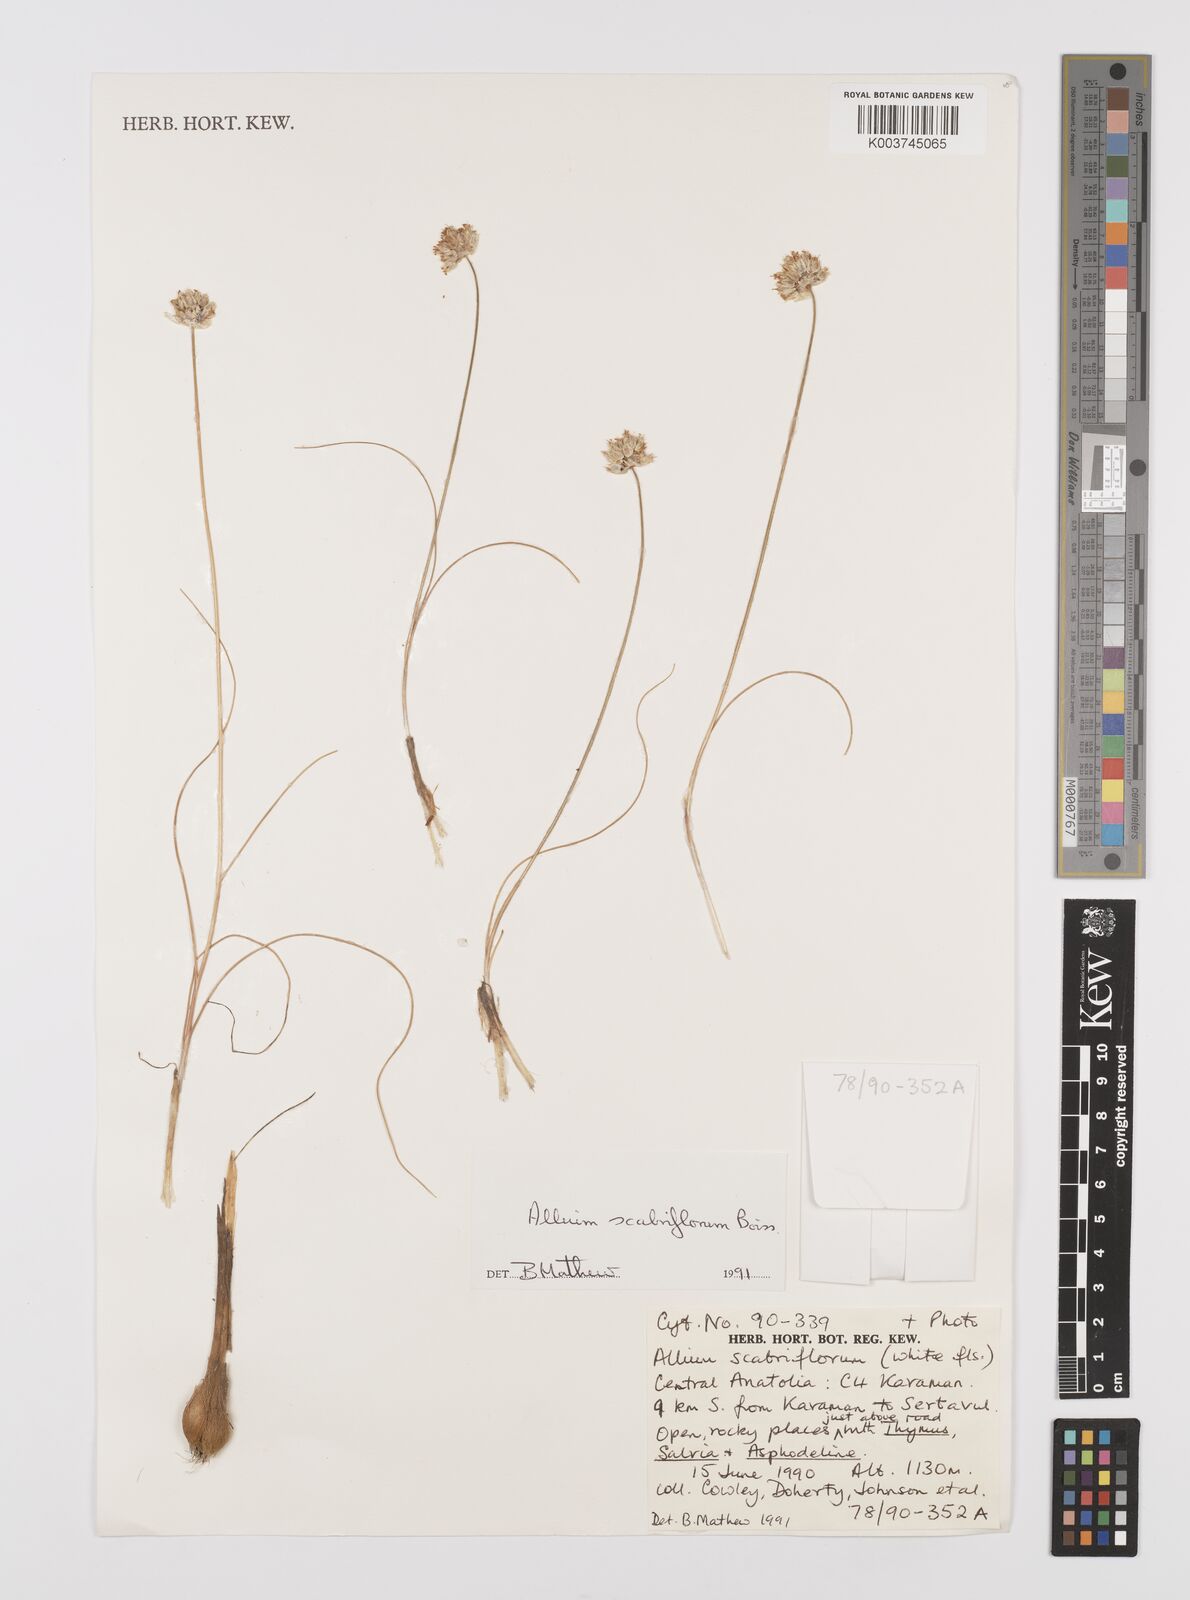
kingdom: Plantae
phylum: Tracheophyta
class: Liliopsida
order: Asparagales
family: Amaryllidaceae
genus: Allium
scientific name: Allium scabriflorum
